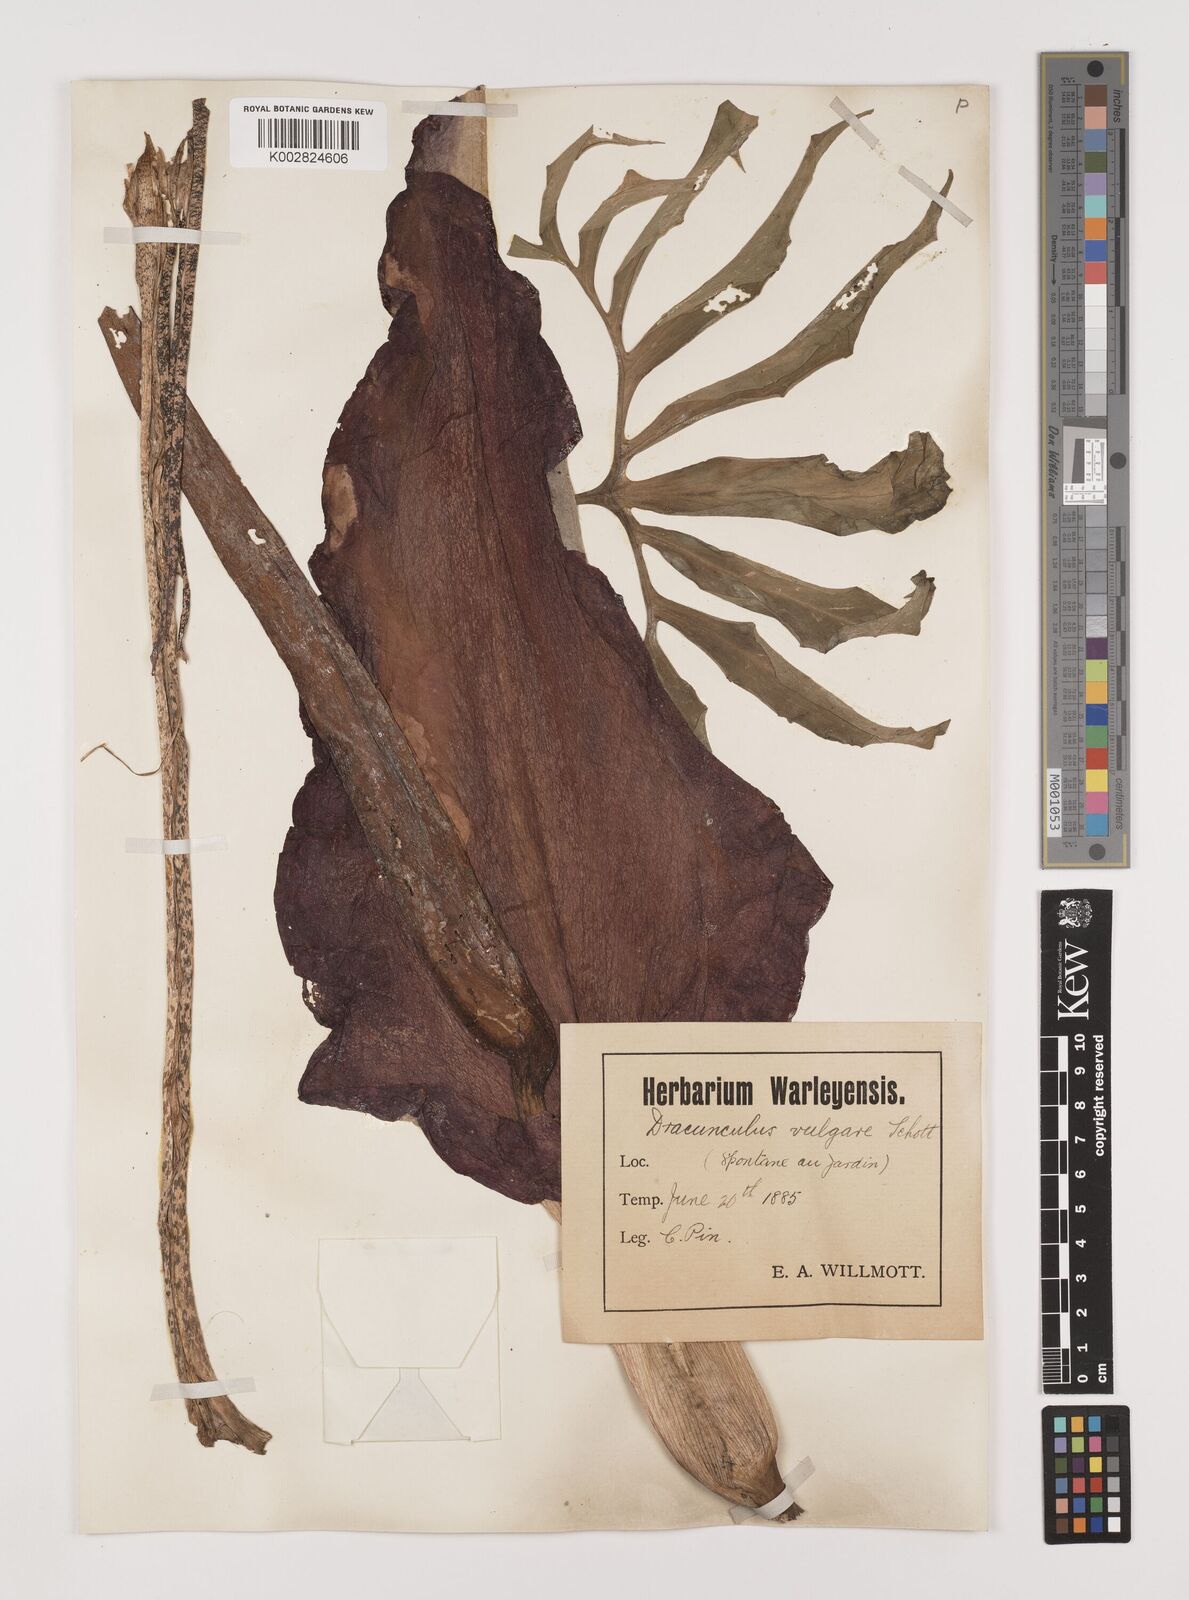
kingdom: Plantae
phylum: Tracheophyta
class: Liliopsida
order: Alismatales
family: Araceae
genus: Dracunculus
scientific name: Dracunculus vulgaris
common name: Dragon arum
